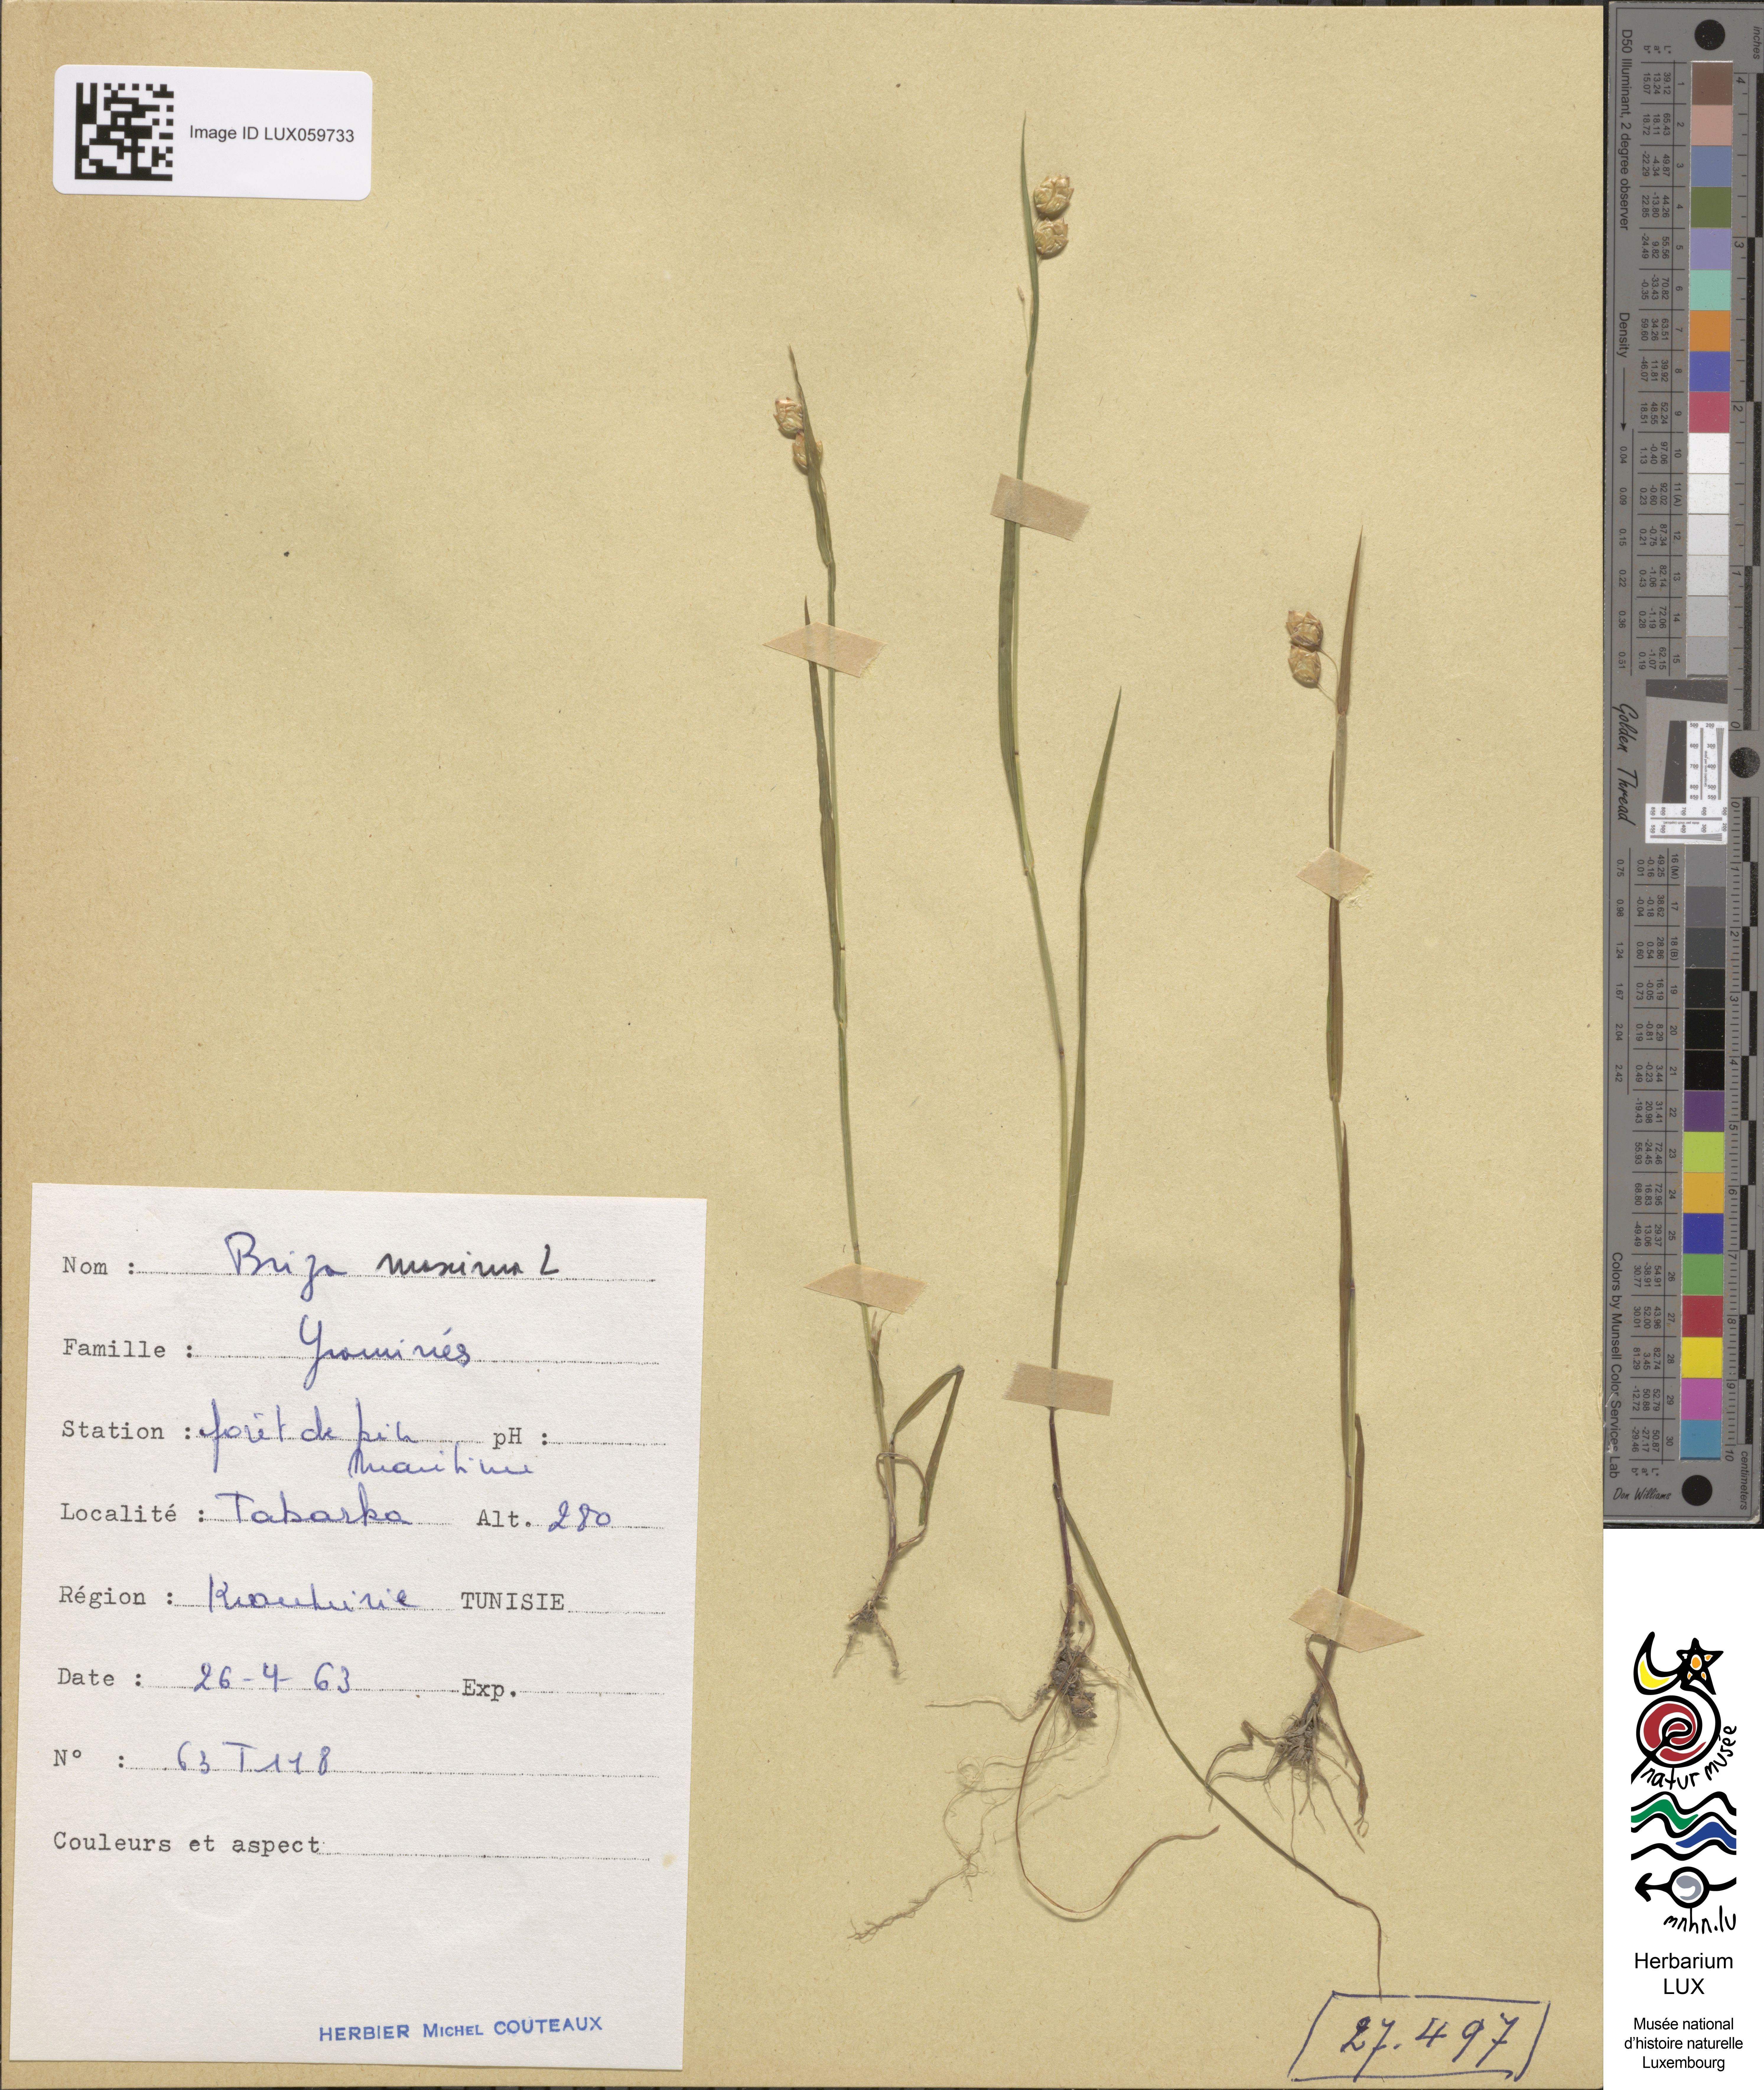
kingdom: Plantae
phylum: Tracheophyta
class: Liliopsida
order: Poales
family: Poaceae
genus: Briza
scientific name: Briza maxima
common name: Big quakinggrass
